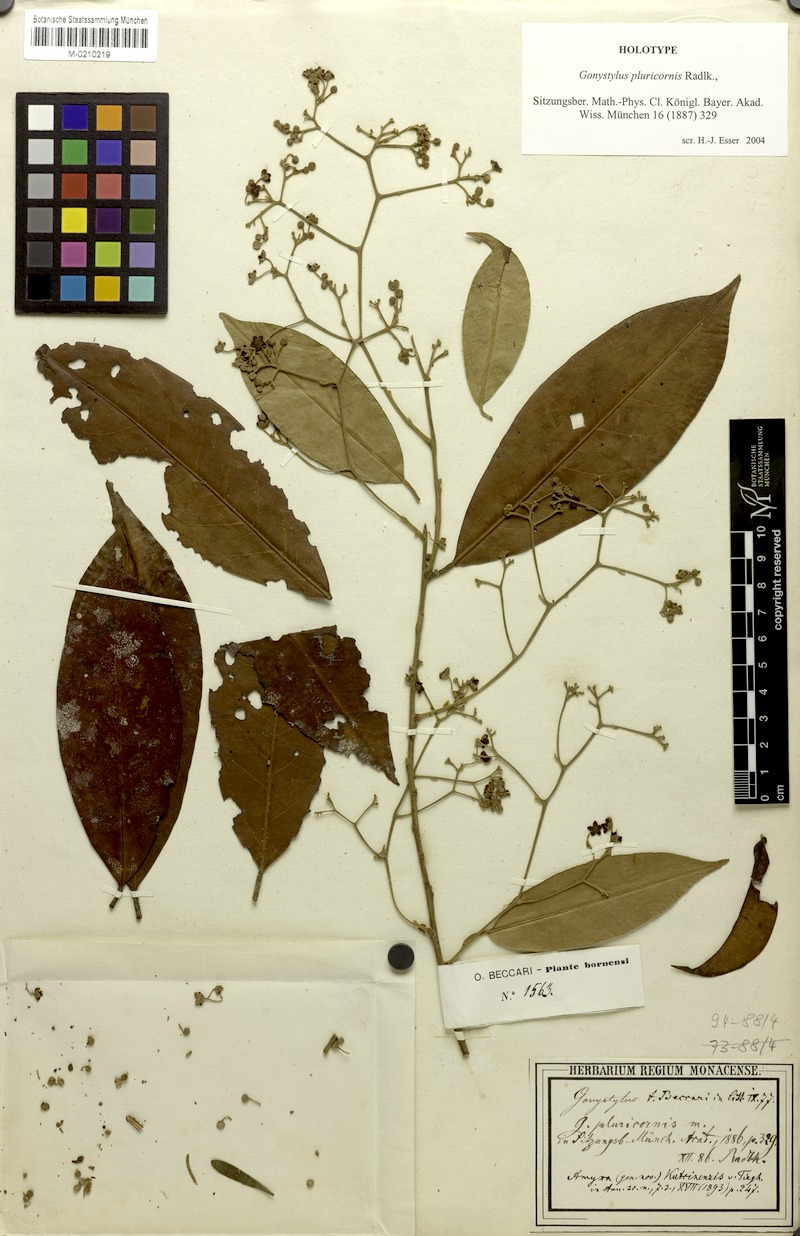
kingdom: Plantae
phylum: Tracheophyta
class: Magnoliopsida
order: Malvales
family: Thymelaeaceae
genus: Amyxa
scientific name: Amyxa pluricornis
